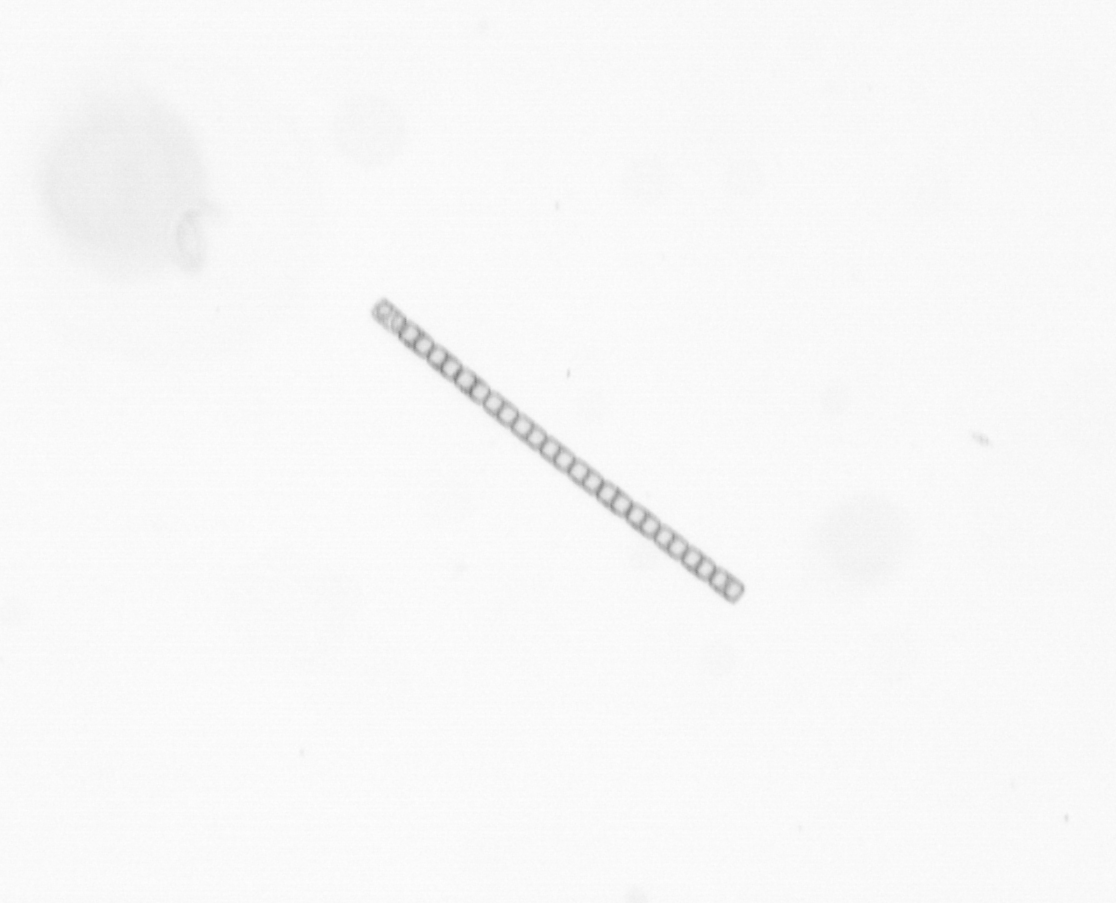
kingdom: Chromista
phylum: Ochrophyta
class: Bacillariophyceae
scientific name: Bacillariophyceae
